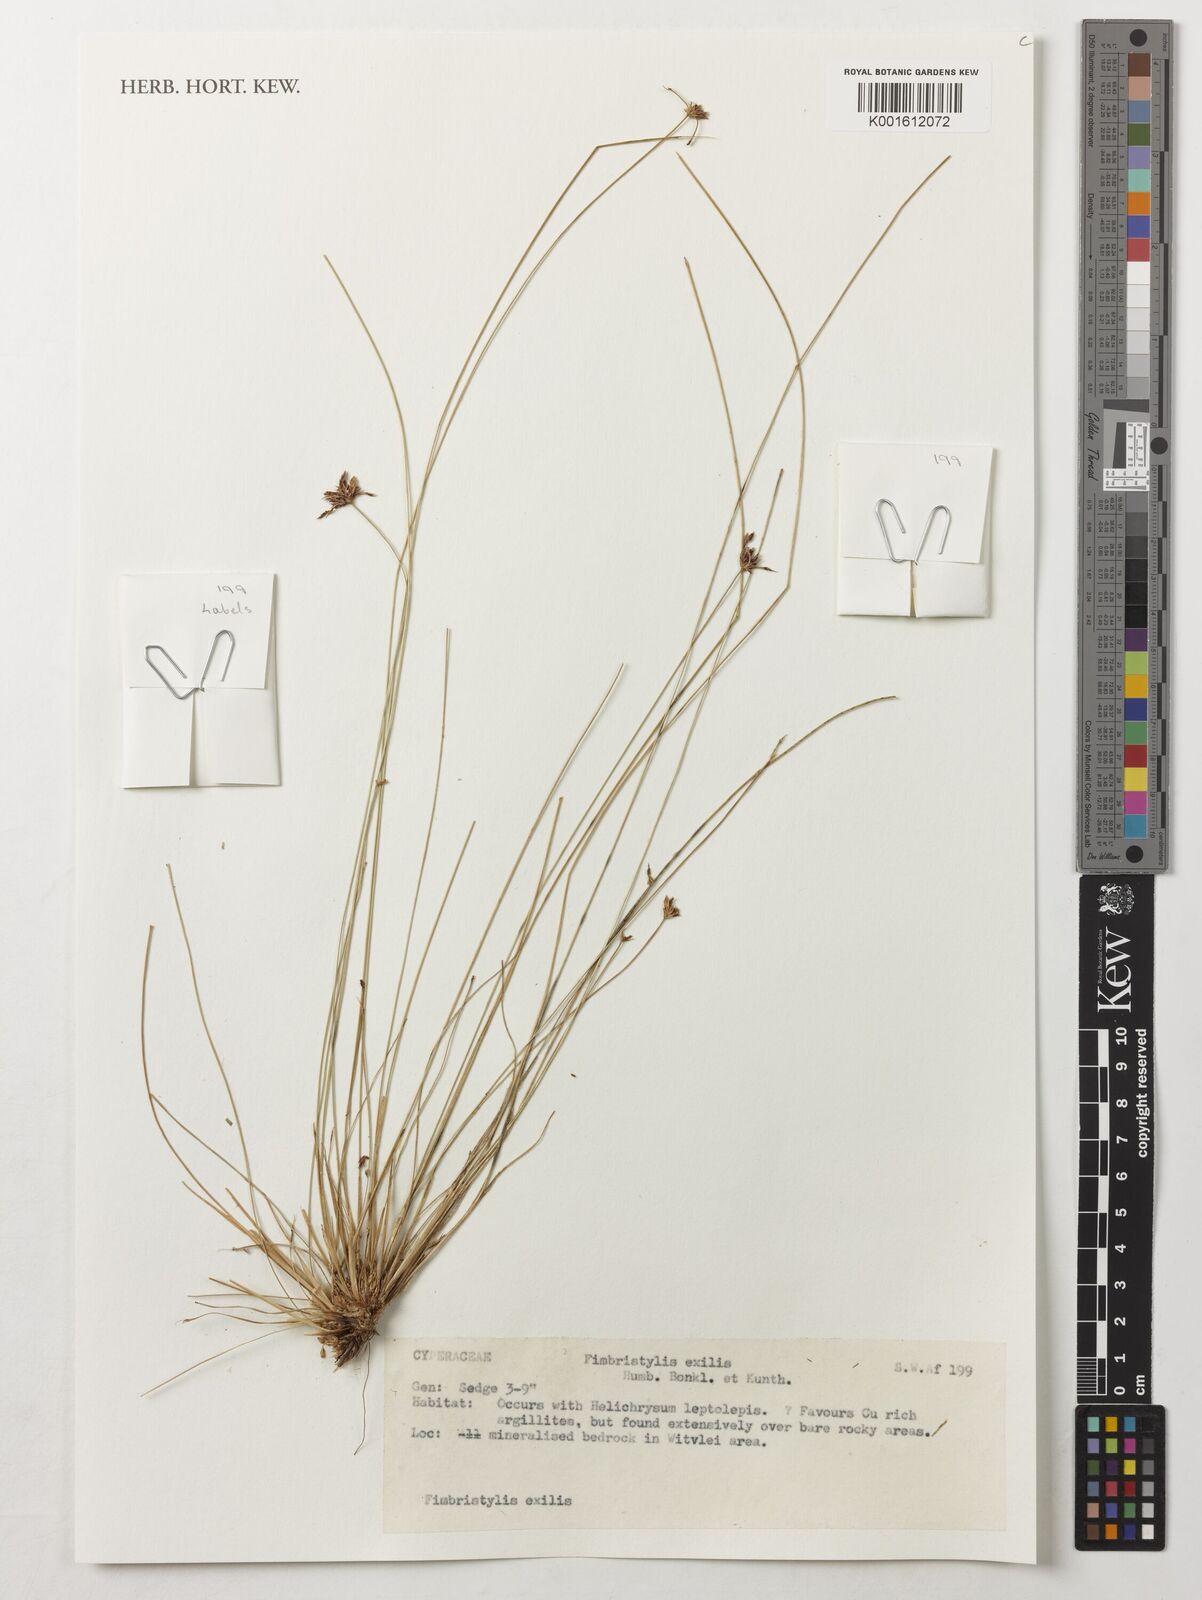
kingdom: Plantae
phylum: Tracheophyta
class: Liliopsida
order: Poales
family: Cyperaceae
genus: Bulbostylis
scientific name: Bulbostylis hispidula
